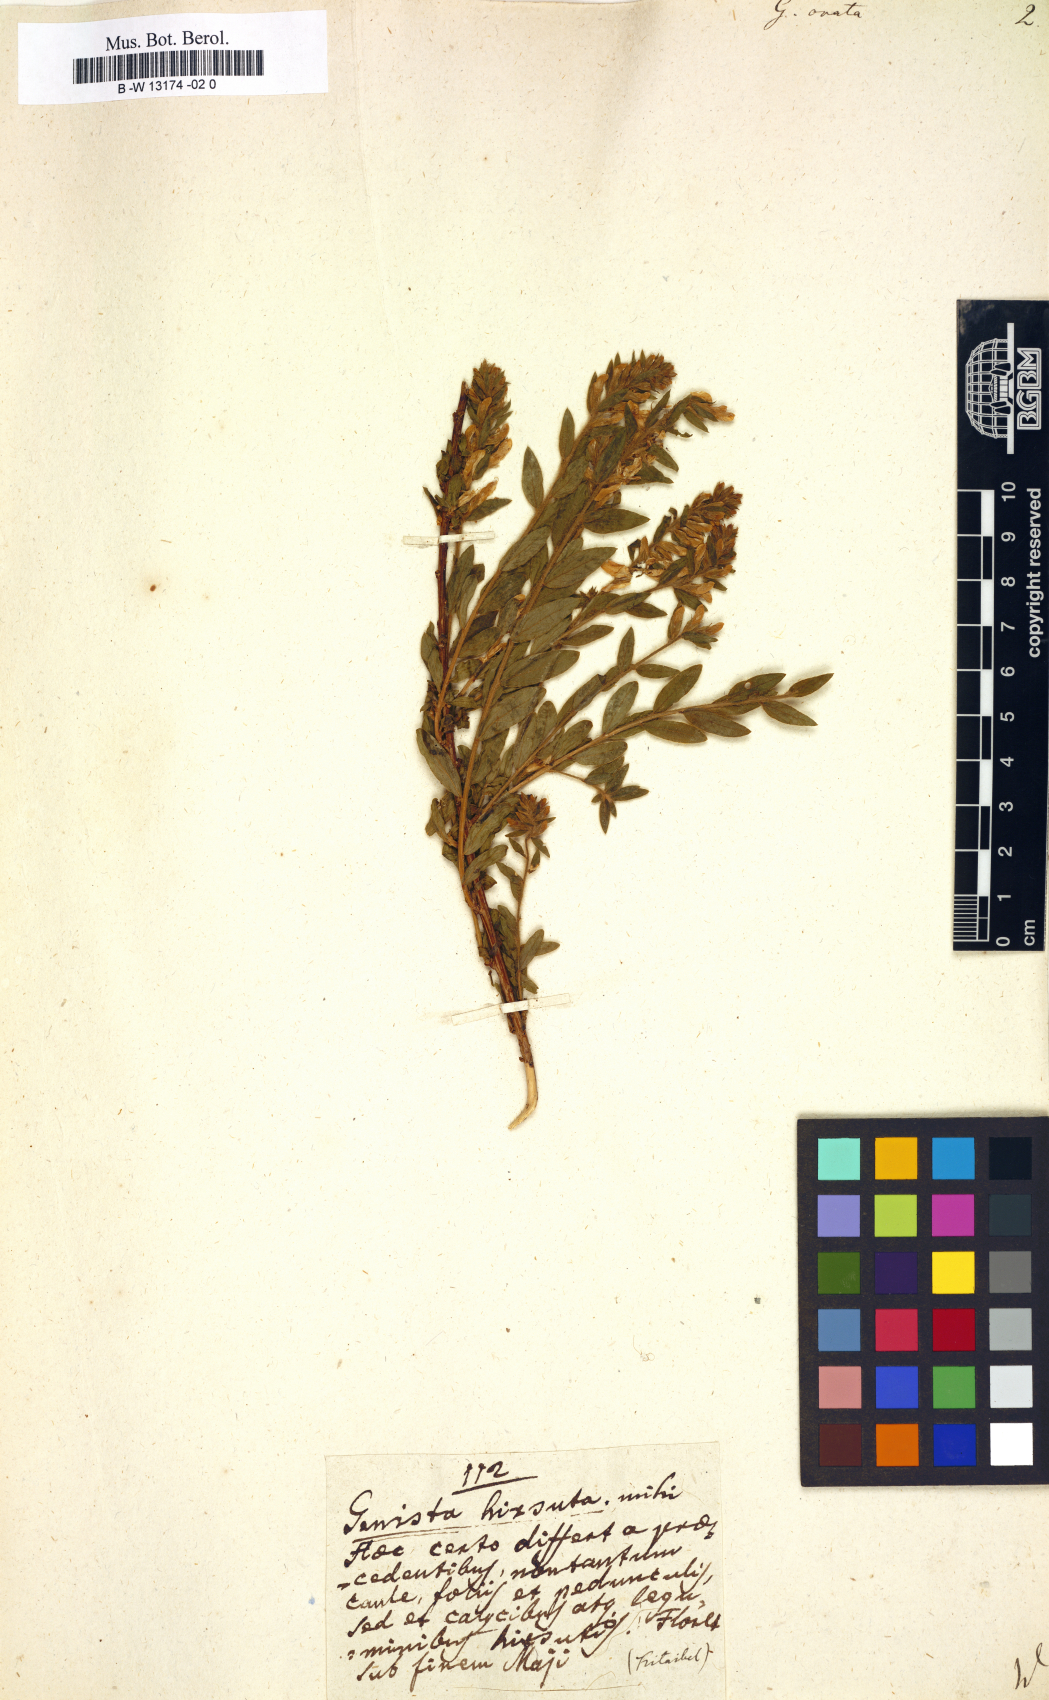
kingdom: Plantae
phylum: Tracheophyta
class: Magnoliopsida
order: Fabales
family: Fabaceae
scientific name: Fabaceae
